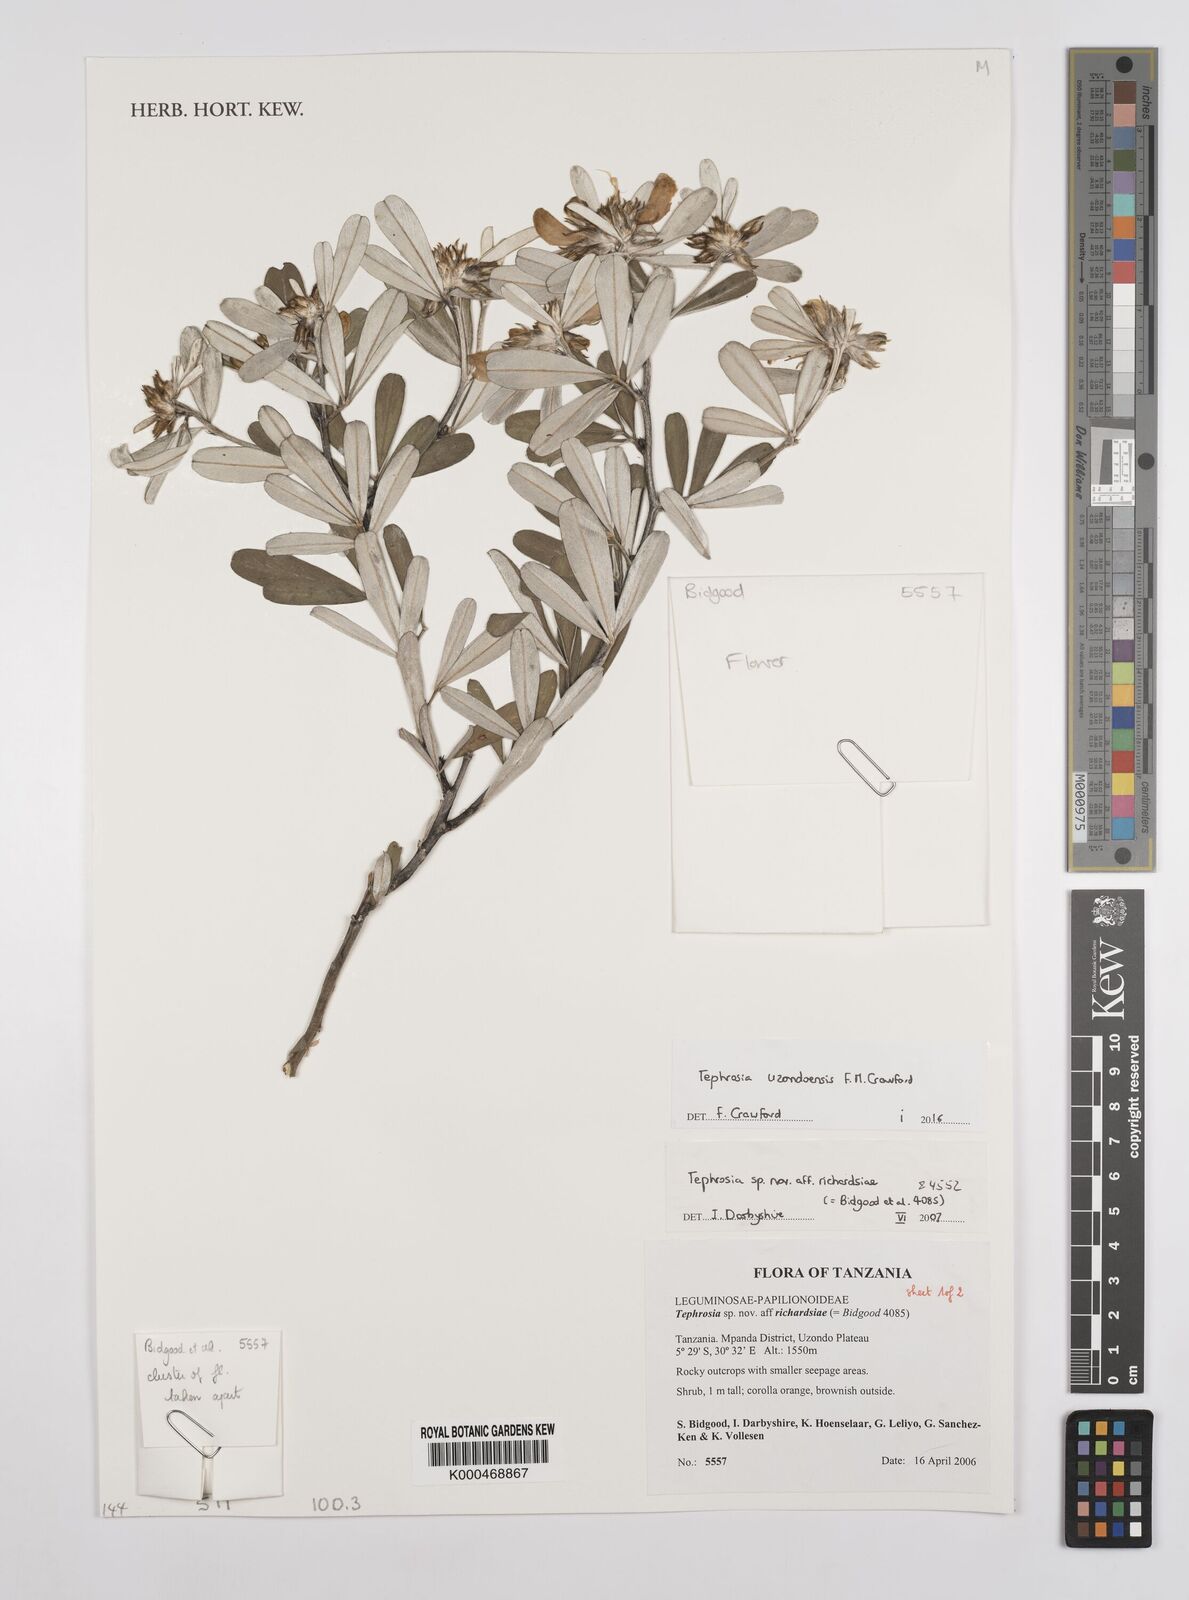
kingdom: Plantae
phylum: Tracheophyta
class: Magnoliopsida
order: Fabales
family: Fabaceae
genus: Tephrosia
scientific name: Tephrosia richardsiae
